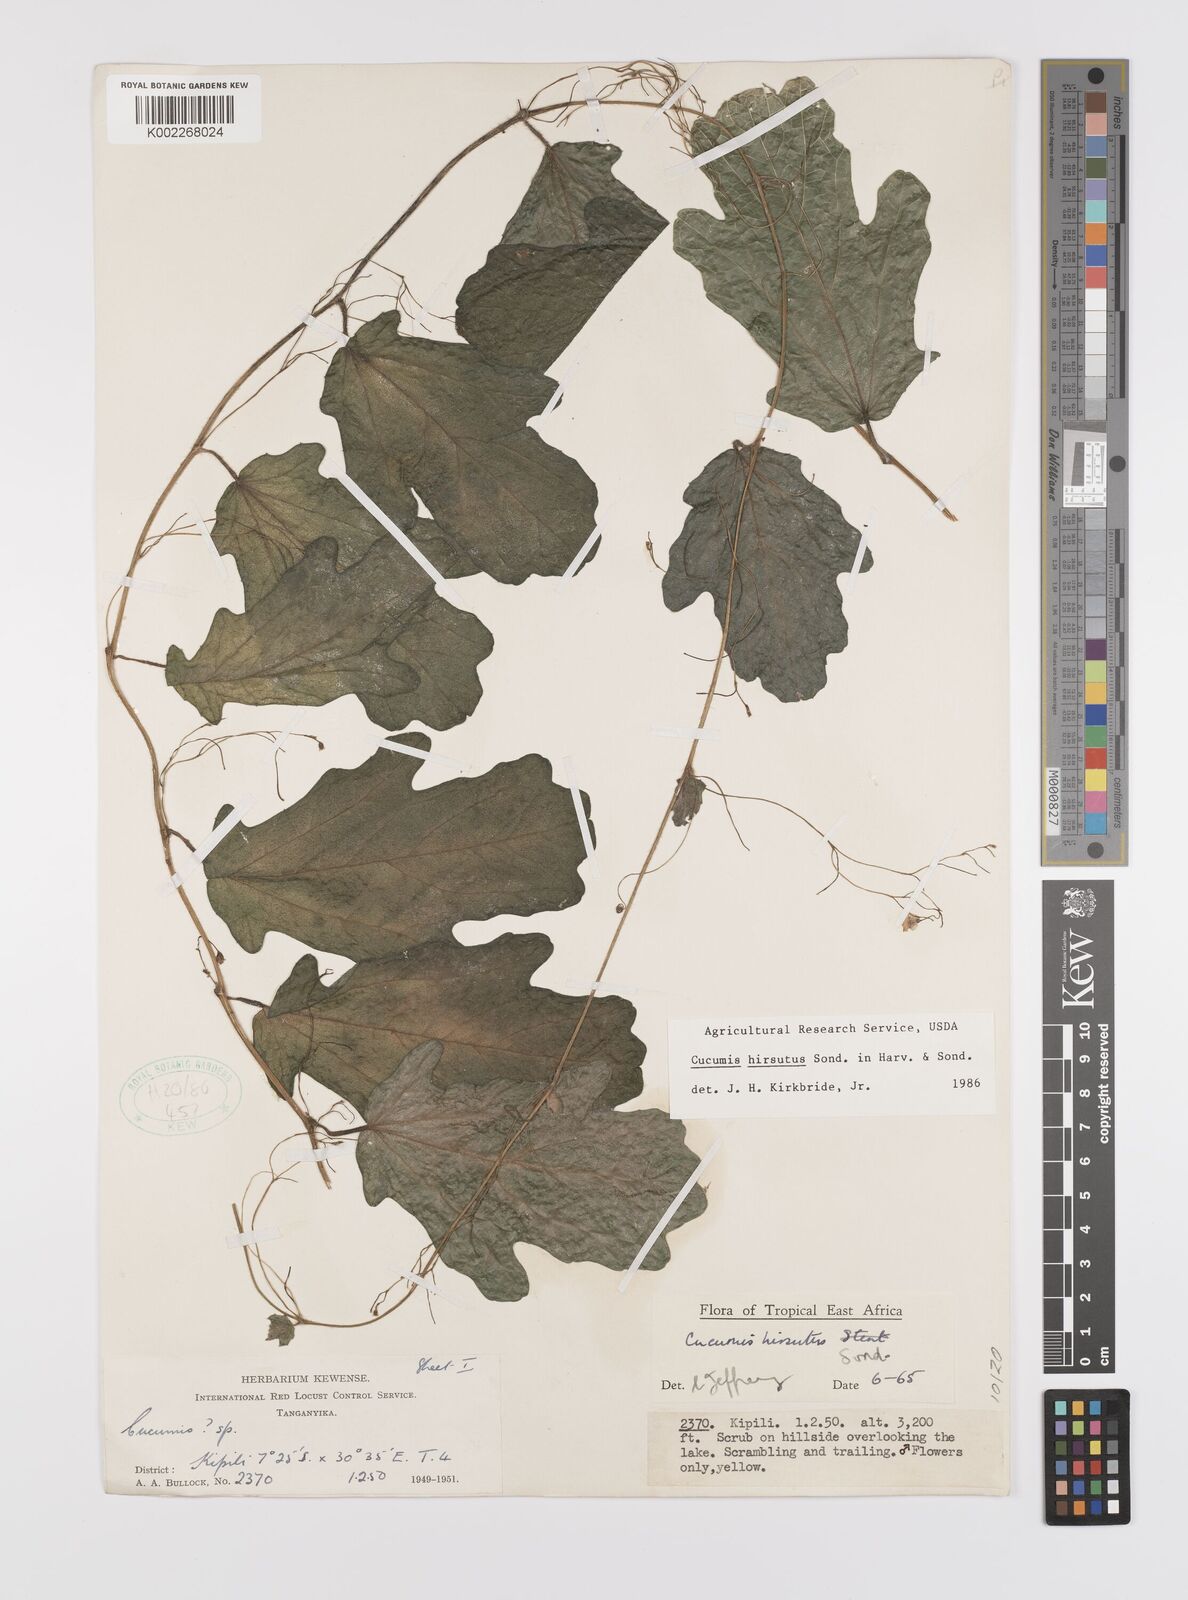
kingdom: Plantae
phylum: Tracheophyta
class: Magnoliopsida
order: Cucurbitales
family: Cucurbitaceae
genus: Cucumis
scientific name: Cucumis hirsutus
